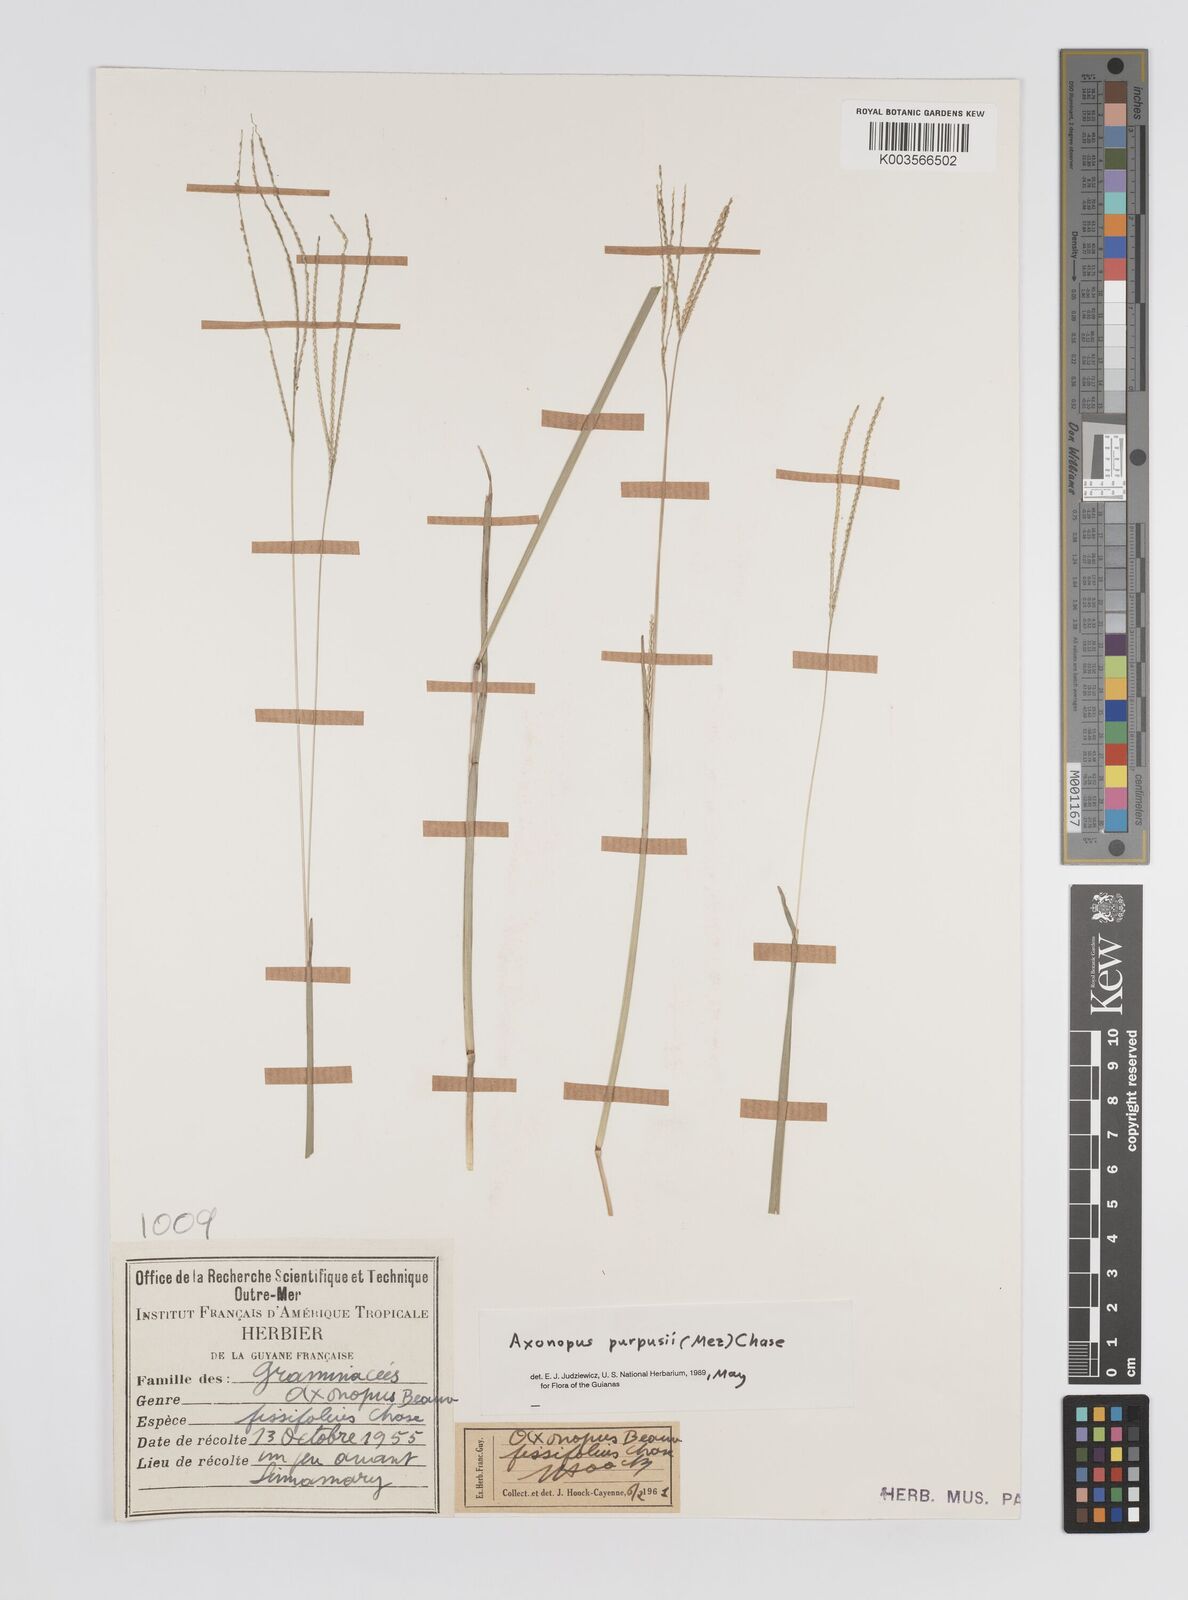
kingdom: Plantae
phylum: Tracheophyta
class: Liliopsida
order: Poales
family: Poaceae
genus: Axonopus
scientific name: Axonopus purpusii
